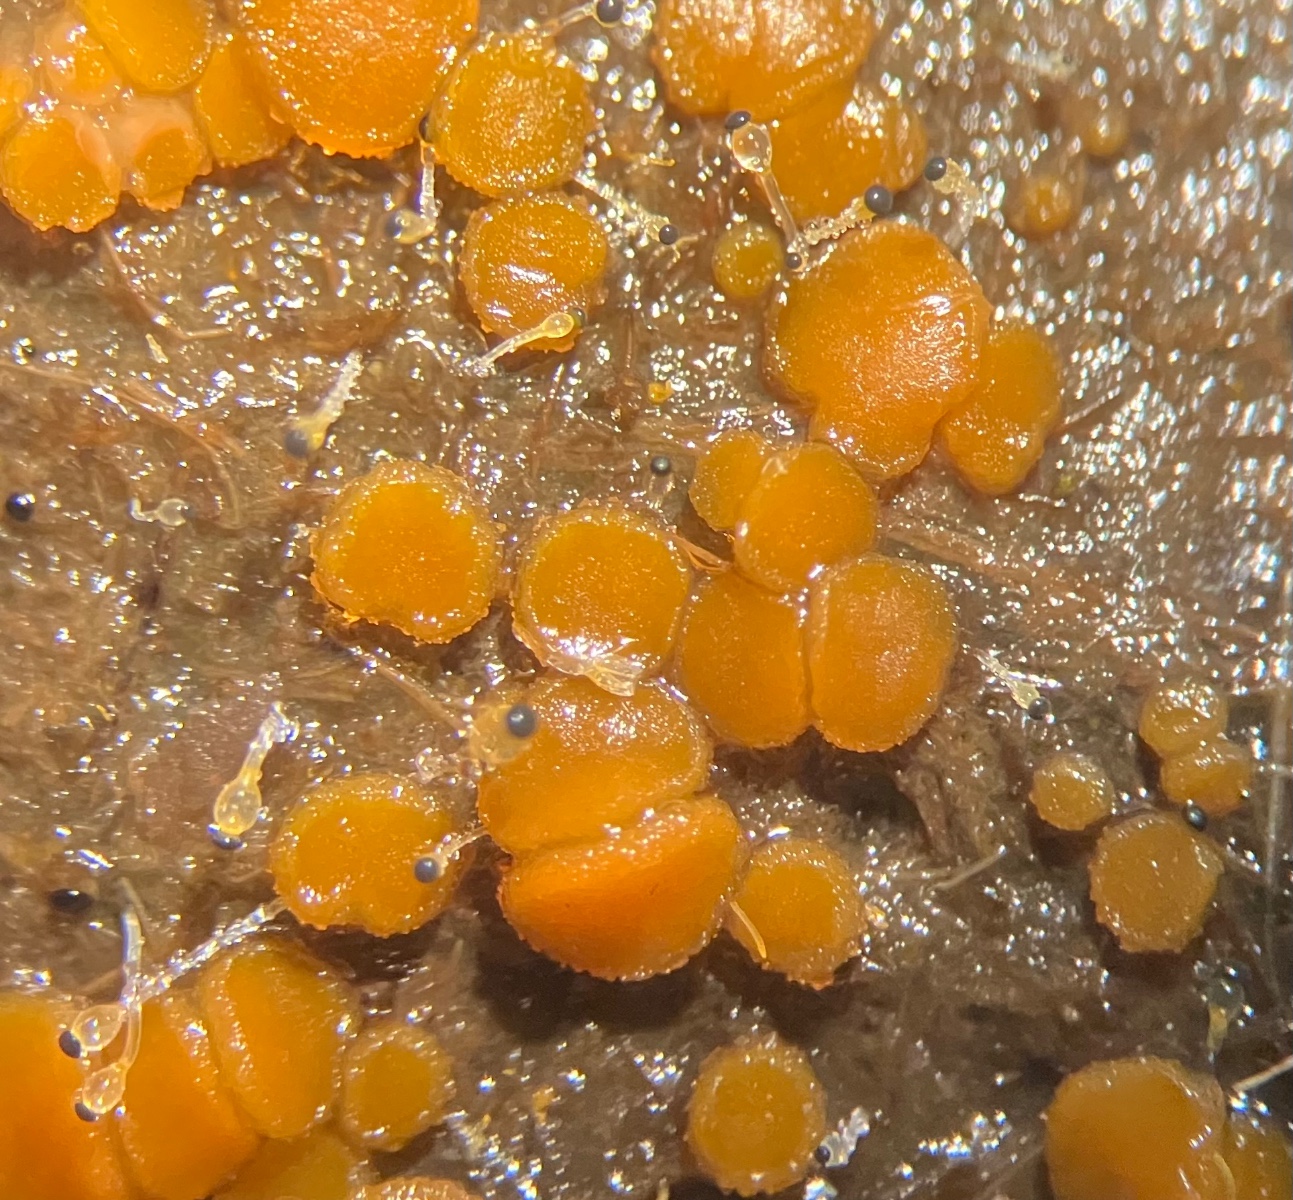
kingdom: Fungi
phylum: Ascomycota
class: Pezizomycetes
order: Pezizales
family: Pyronemataceae
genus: Cheilymenia
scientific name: Cheilymenia granulata
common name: møgbæger
